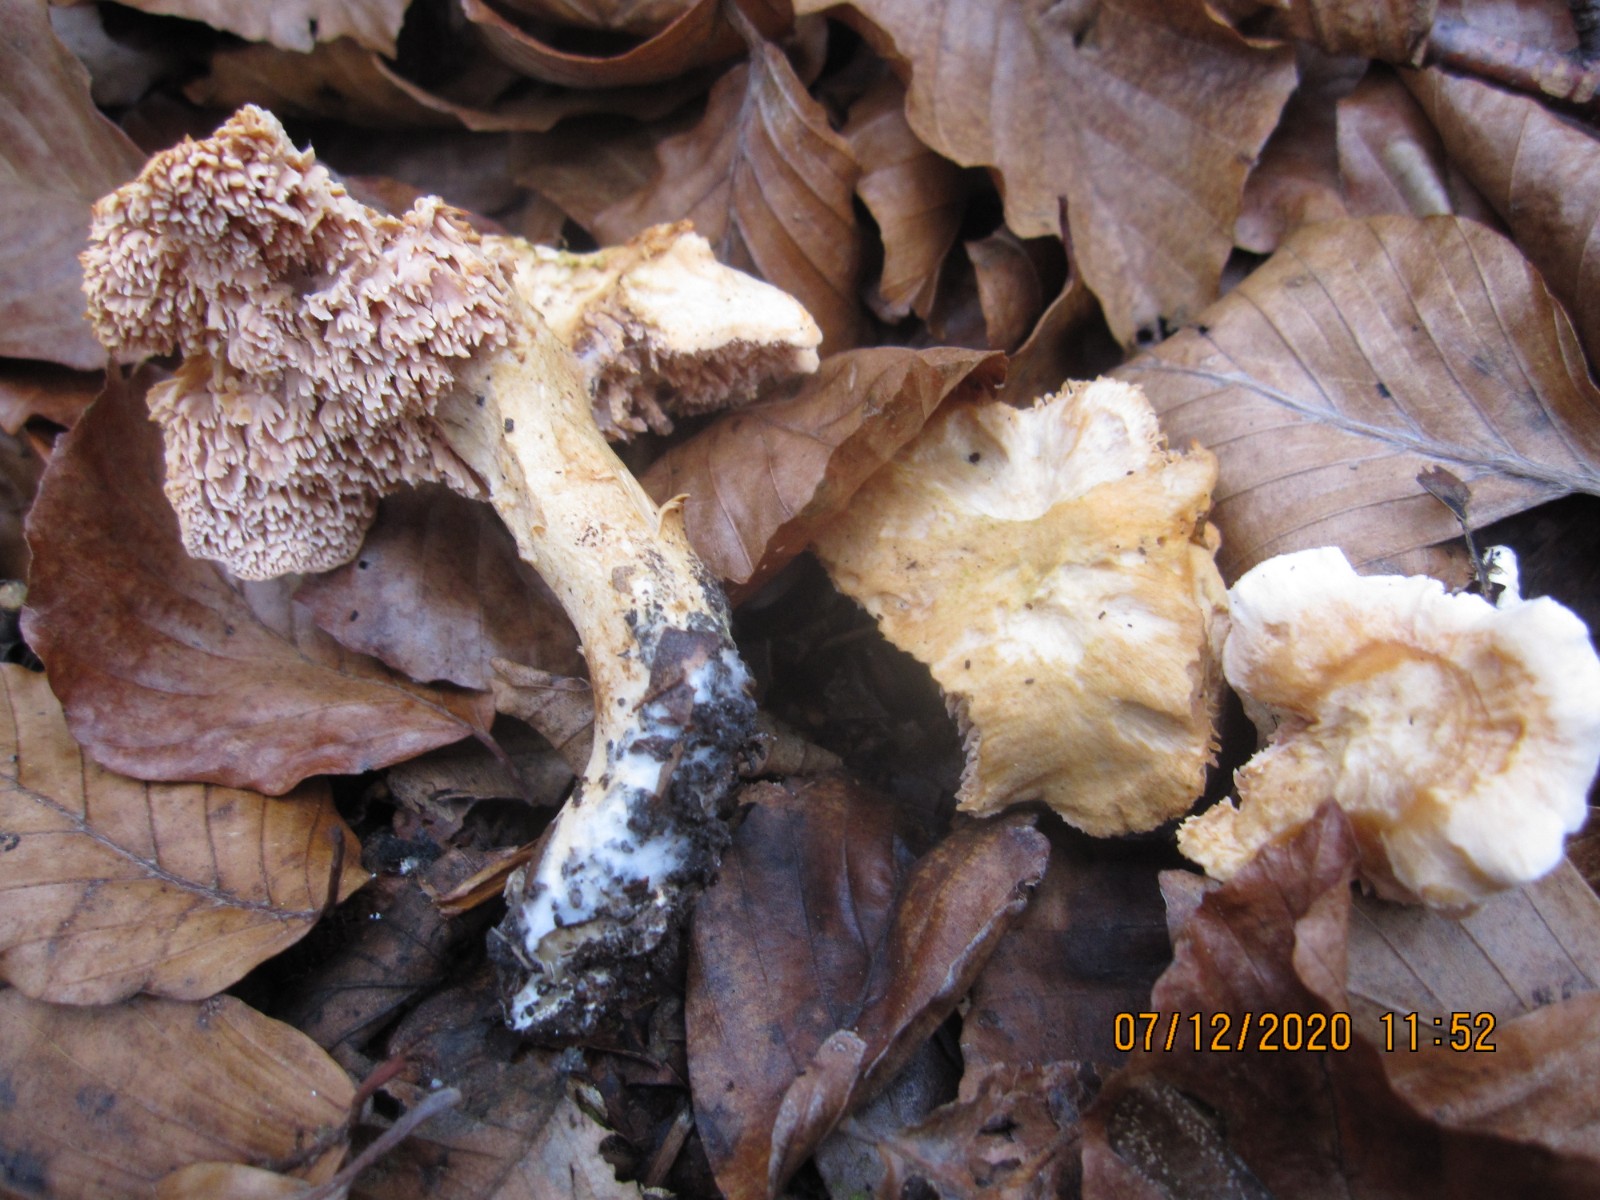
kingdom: Fungi
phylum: Basidiomycota
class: Agaricomycetes
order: Cantharellales
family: Hydnaceae
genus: Hydnum
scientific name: Hydnum
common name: pigsvamp
